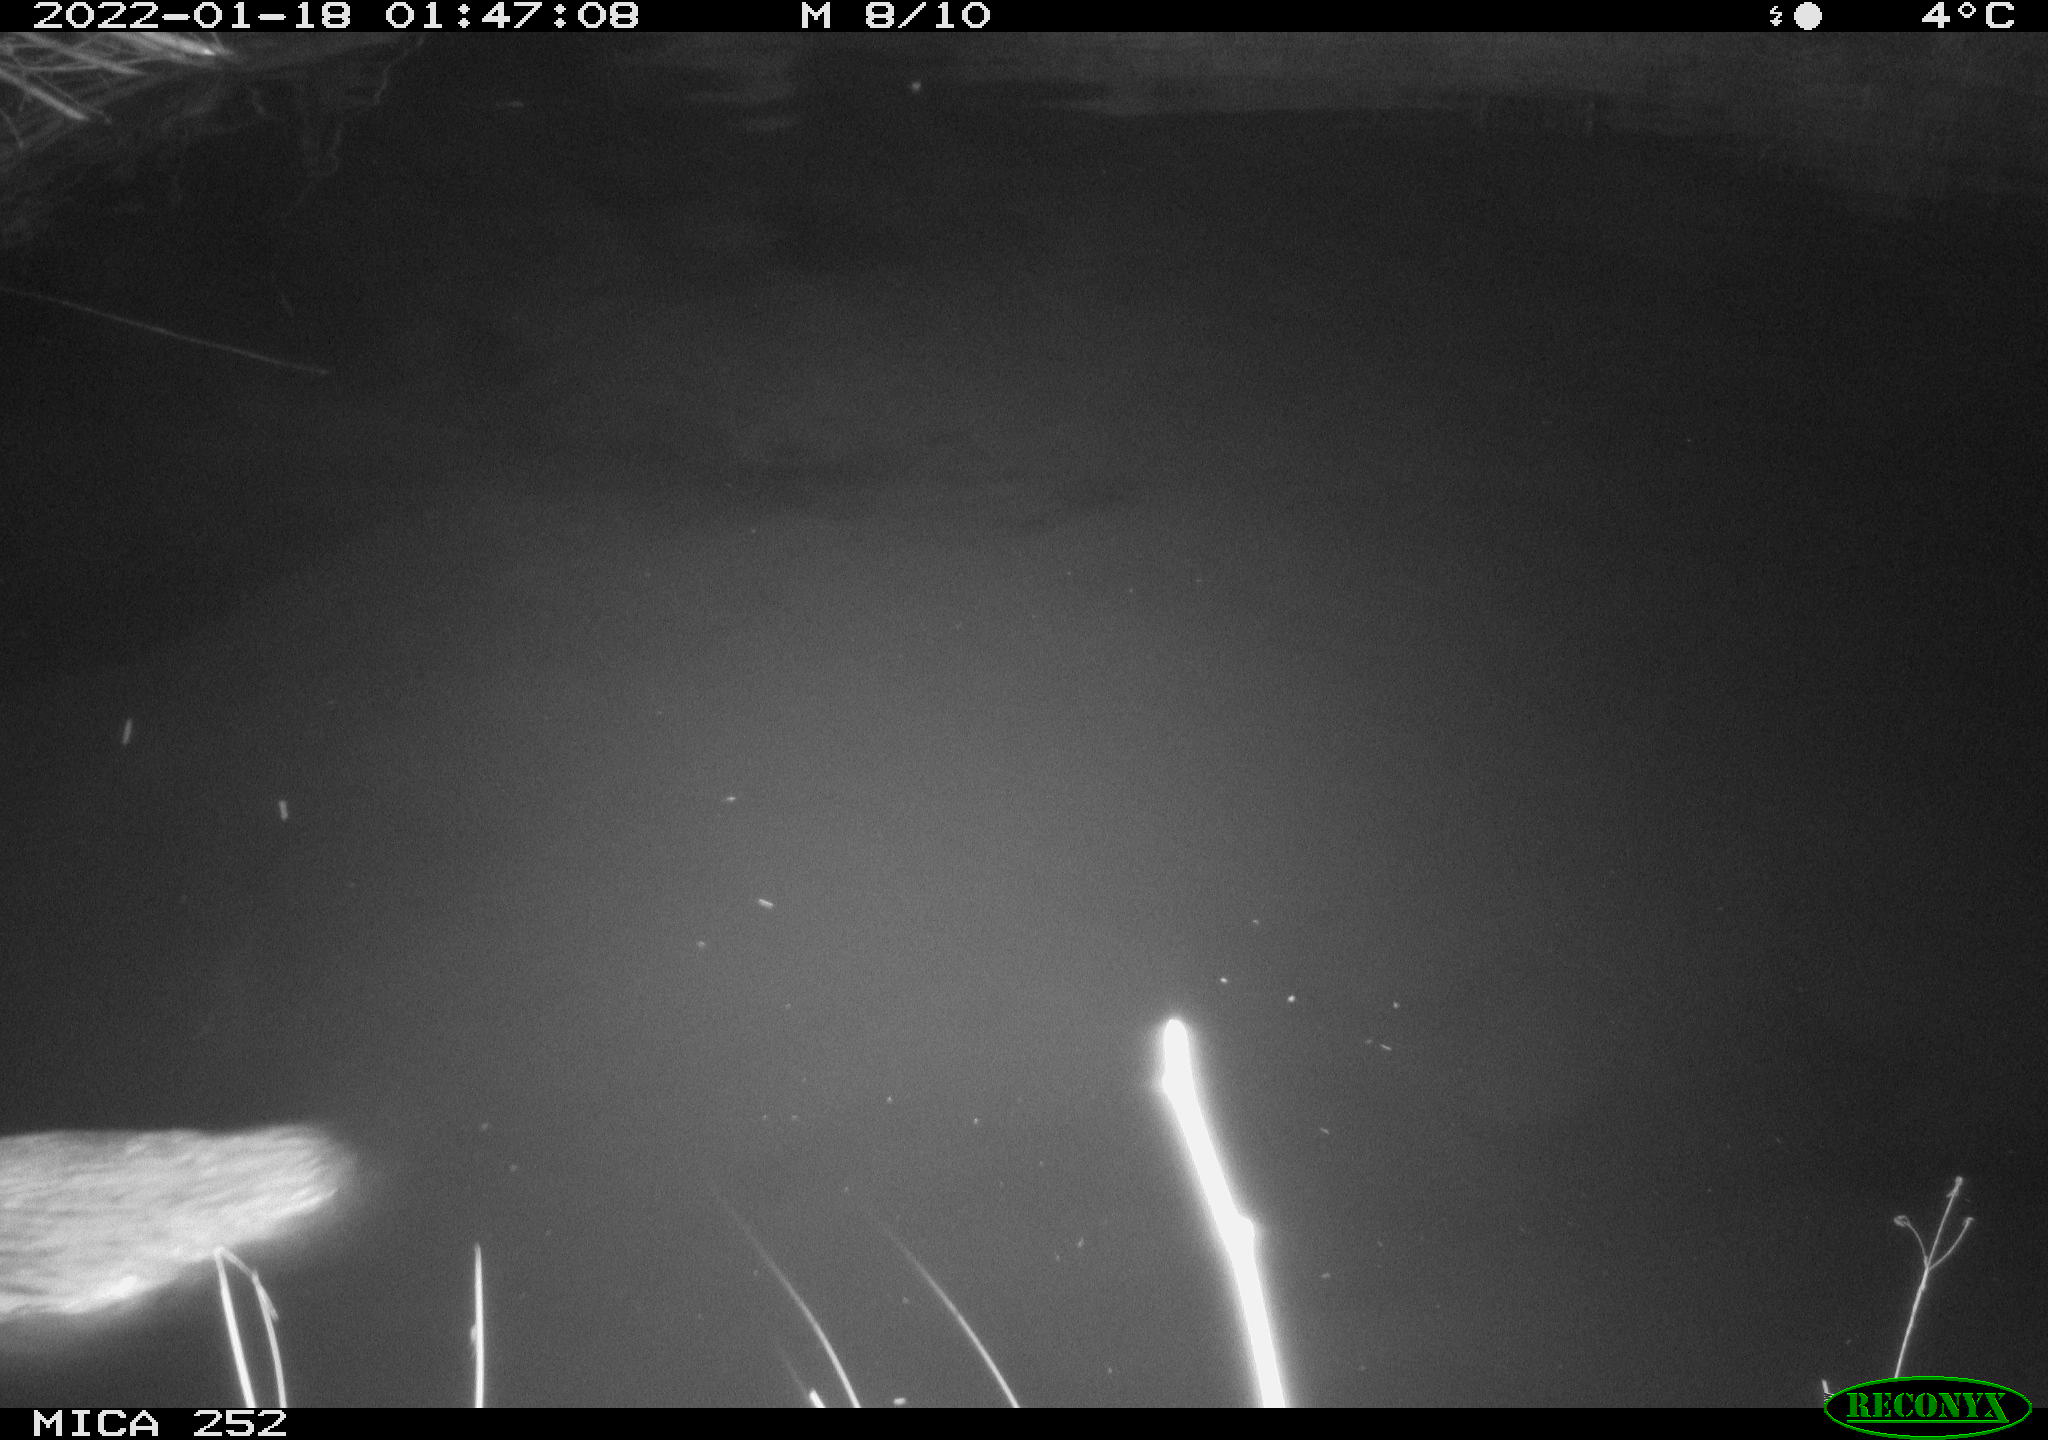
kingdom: Animalia
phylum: Chordata
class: Mammalia
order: Rodentia
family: Castoridae
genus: Castor
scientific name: Castor fiber
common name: Eurasian beaver
